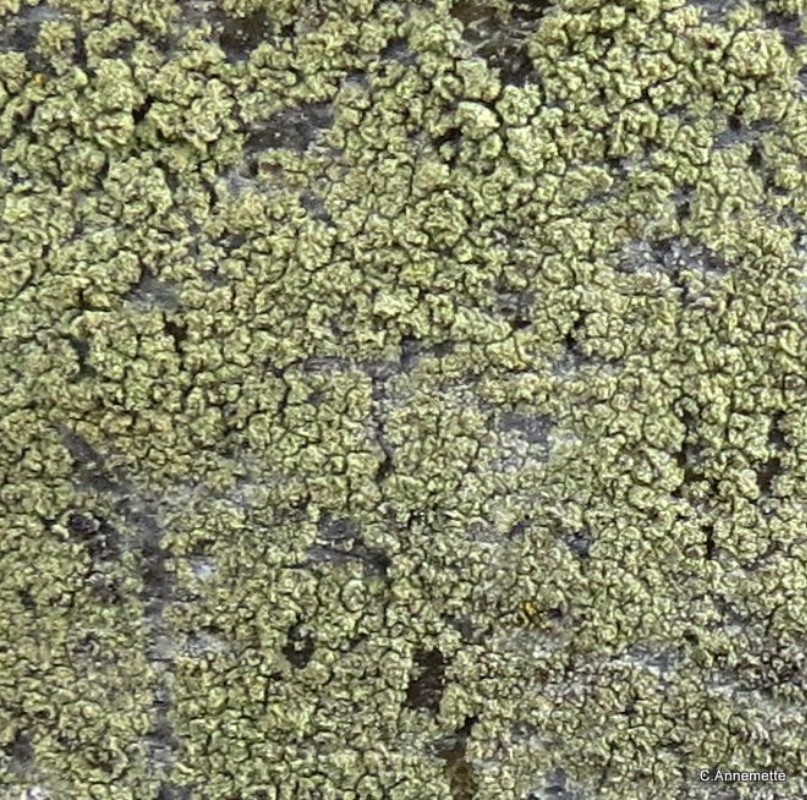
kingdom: Fungi
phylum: Ascomycota
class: Lecanoromycetes
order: Lecanorales
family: Lecanoraceae
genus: Pyrrhospora
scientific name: Pyrrhospora quernea
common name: almindelig rødskivelav
